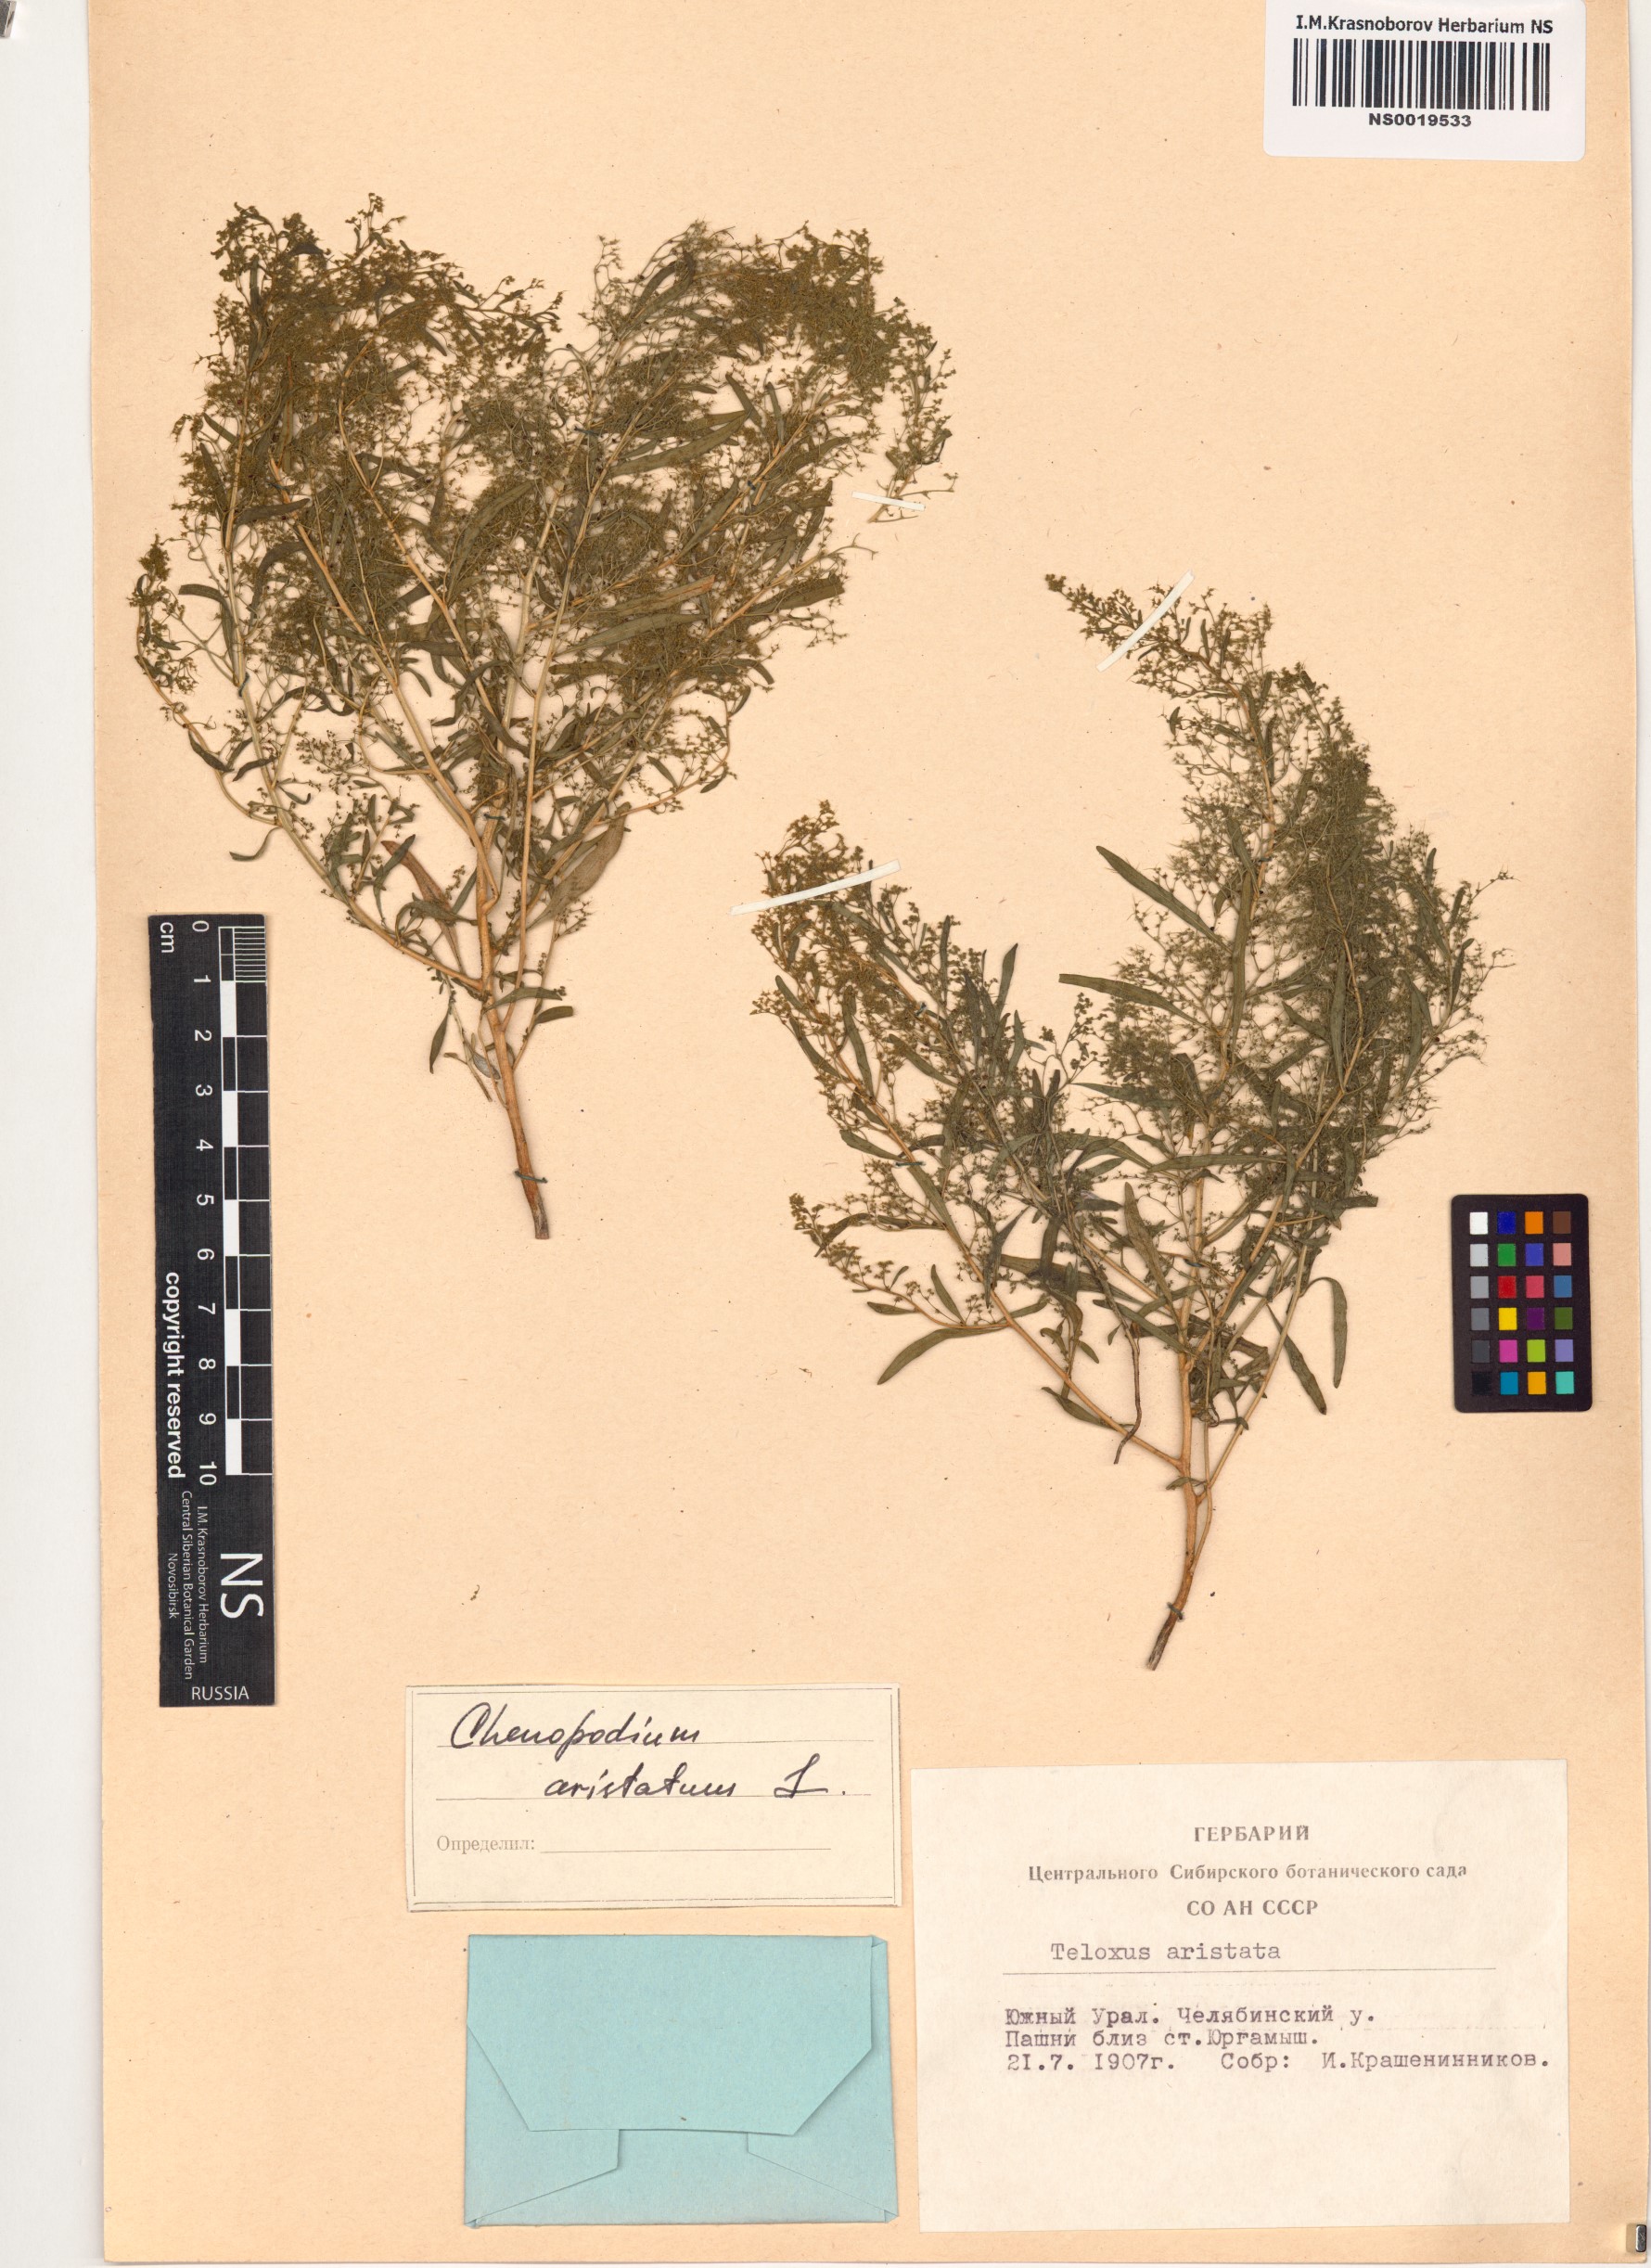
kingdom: Plantae
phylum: Tracheophyta
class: Magnoliopsida
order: Caryophyllales
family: Amaranthaceae
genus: Teloxys
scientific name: Teloxys aristata
